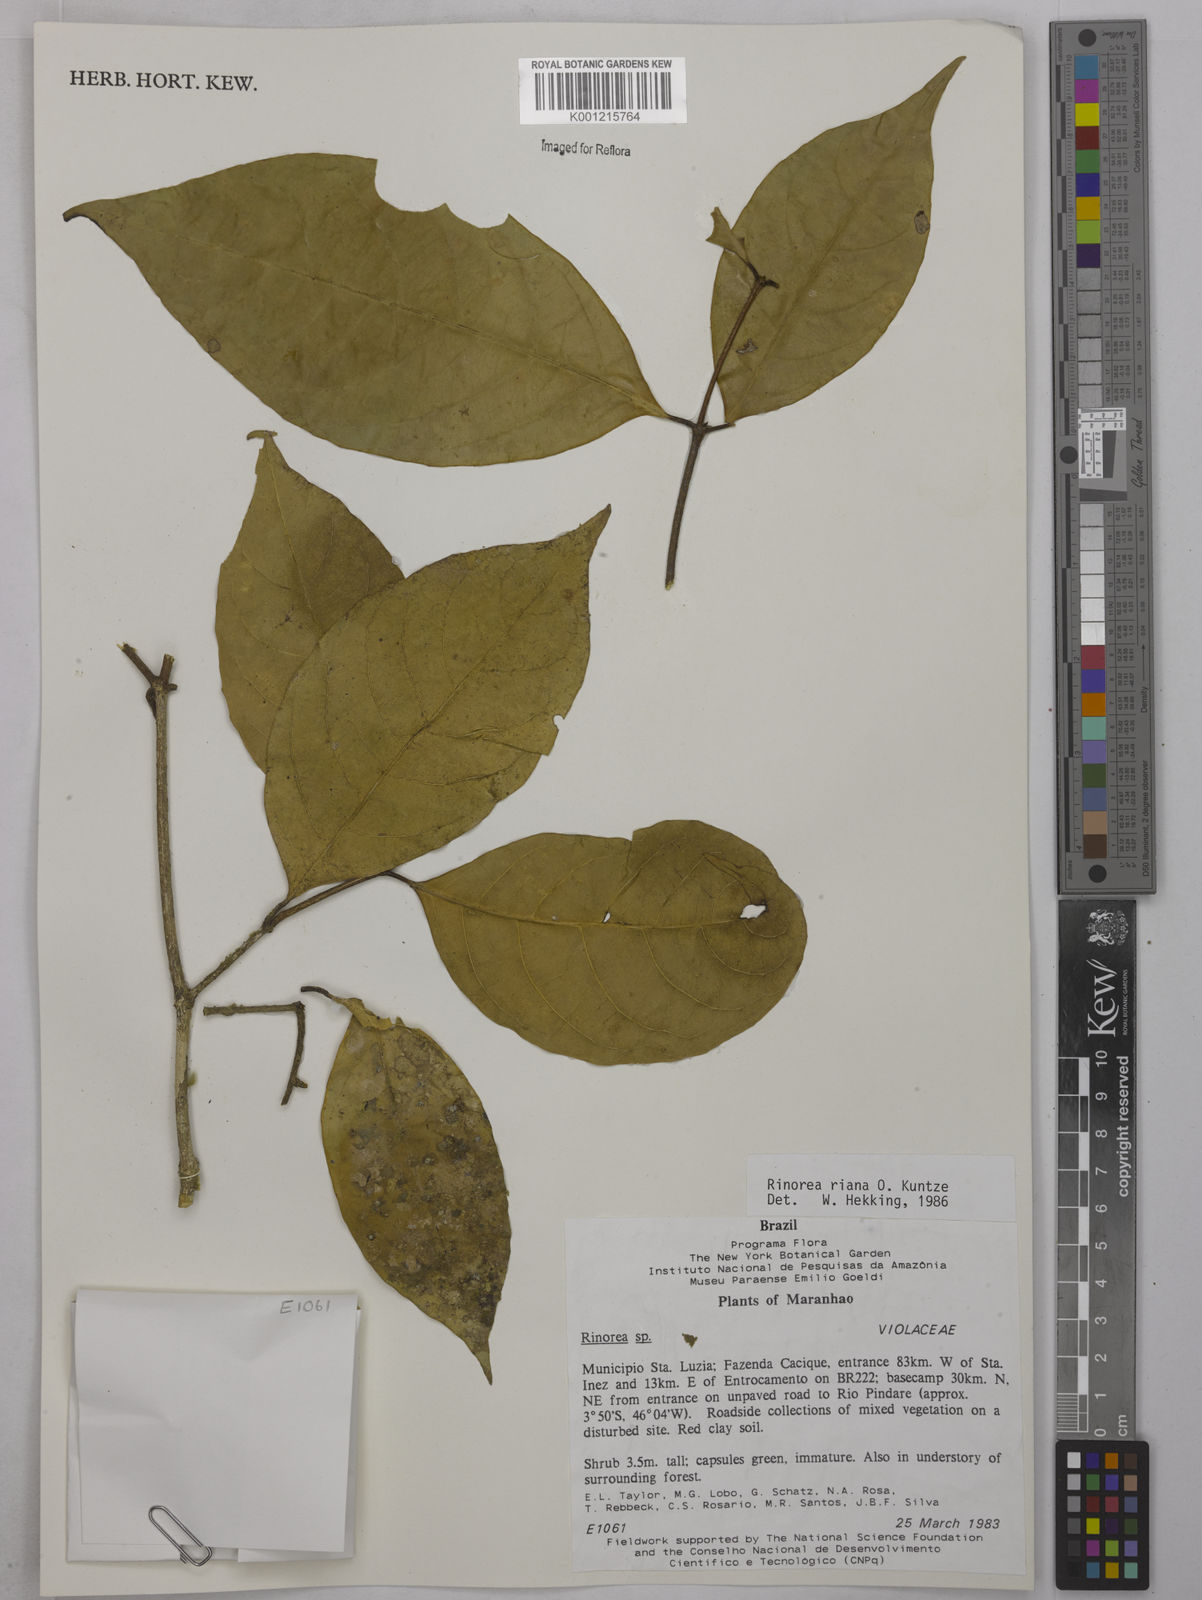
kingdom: Plantae
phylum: Tracheophyta
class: Magnoliopsida
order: Malpighiales
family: Violaceae
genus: Rinorea
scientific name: Rinorea riana
